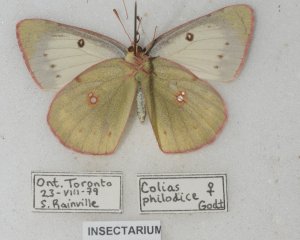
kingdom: Animalia
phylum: Arthropoda
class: Insecta
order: Lepidoptera
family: Pieridae
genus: Colias
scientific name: Colias philodice
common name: Clouded Sulphur
